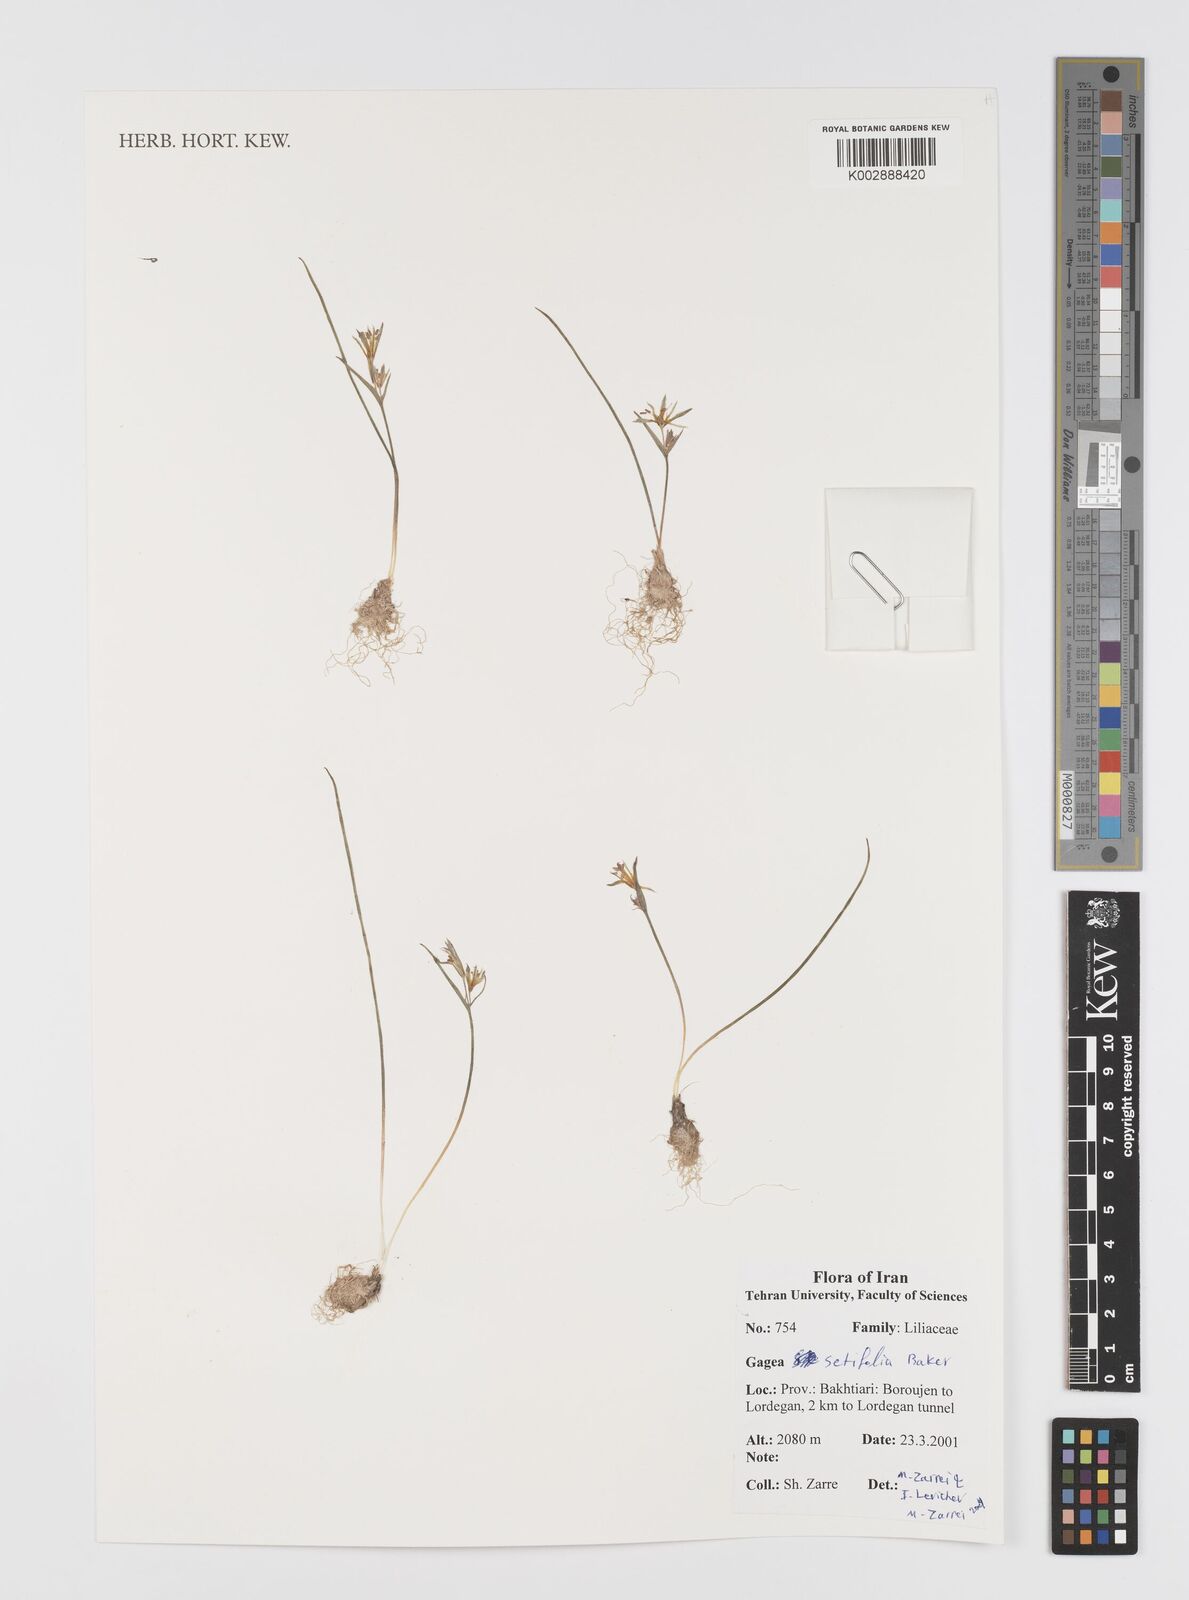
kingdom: Plantae
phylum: Tracheophyta
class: Liliopsida
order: Liliales
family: Liliaceae
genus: Gagea
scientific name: Gagea setifolia
